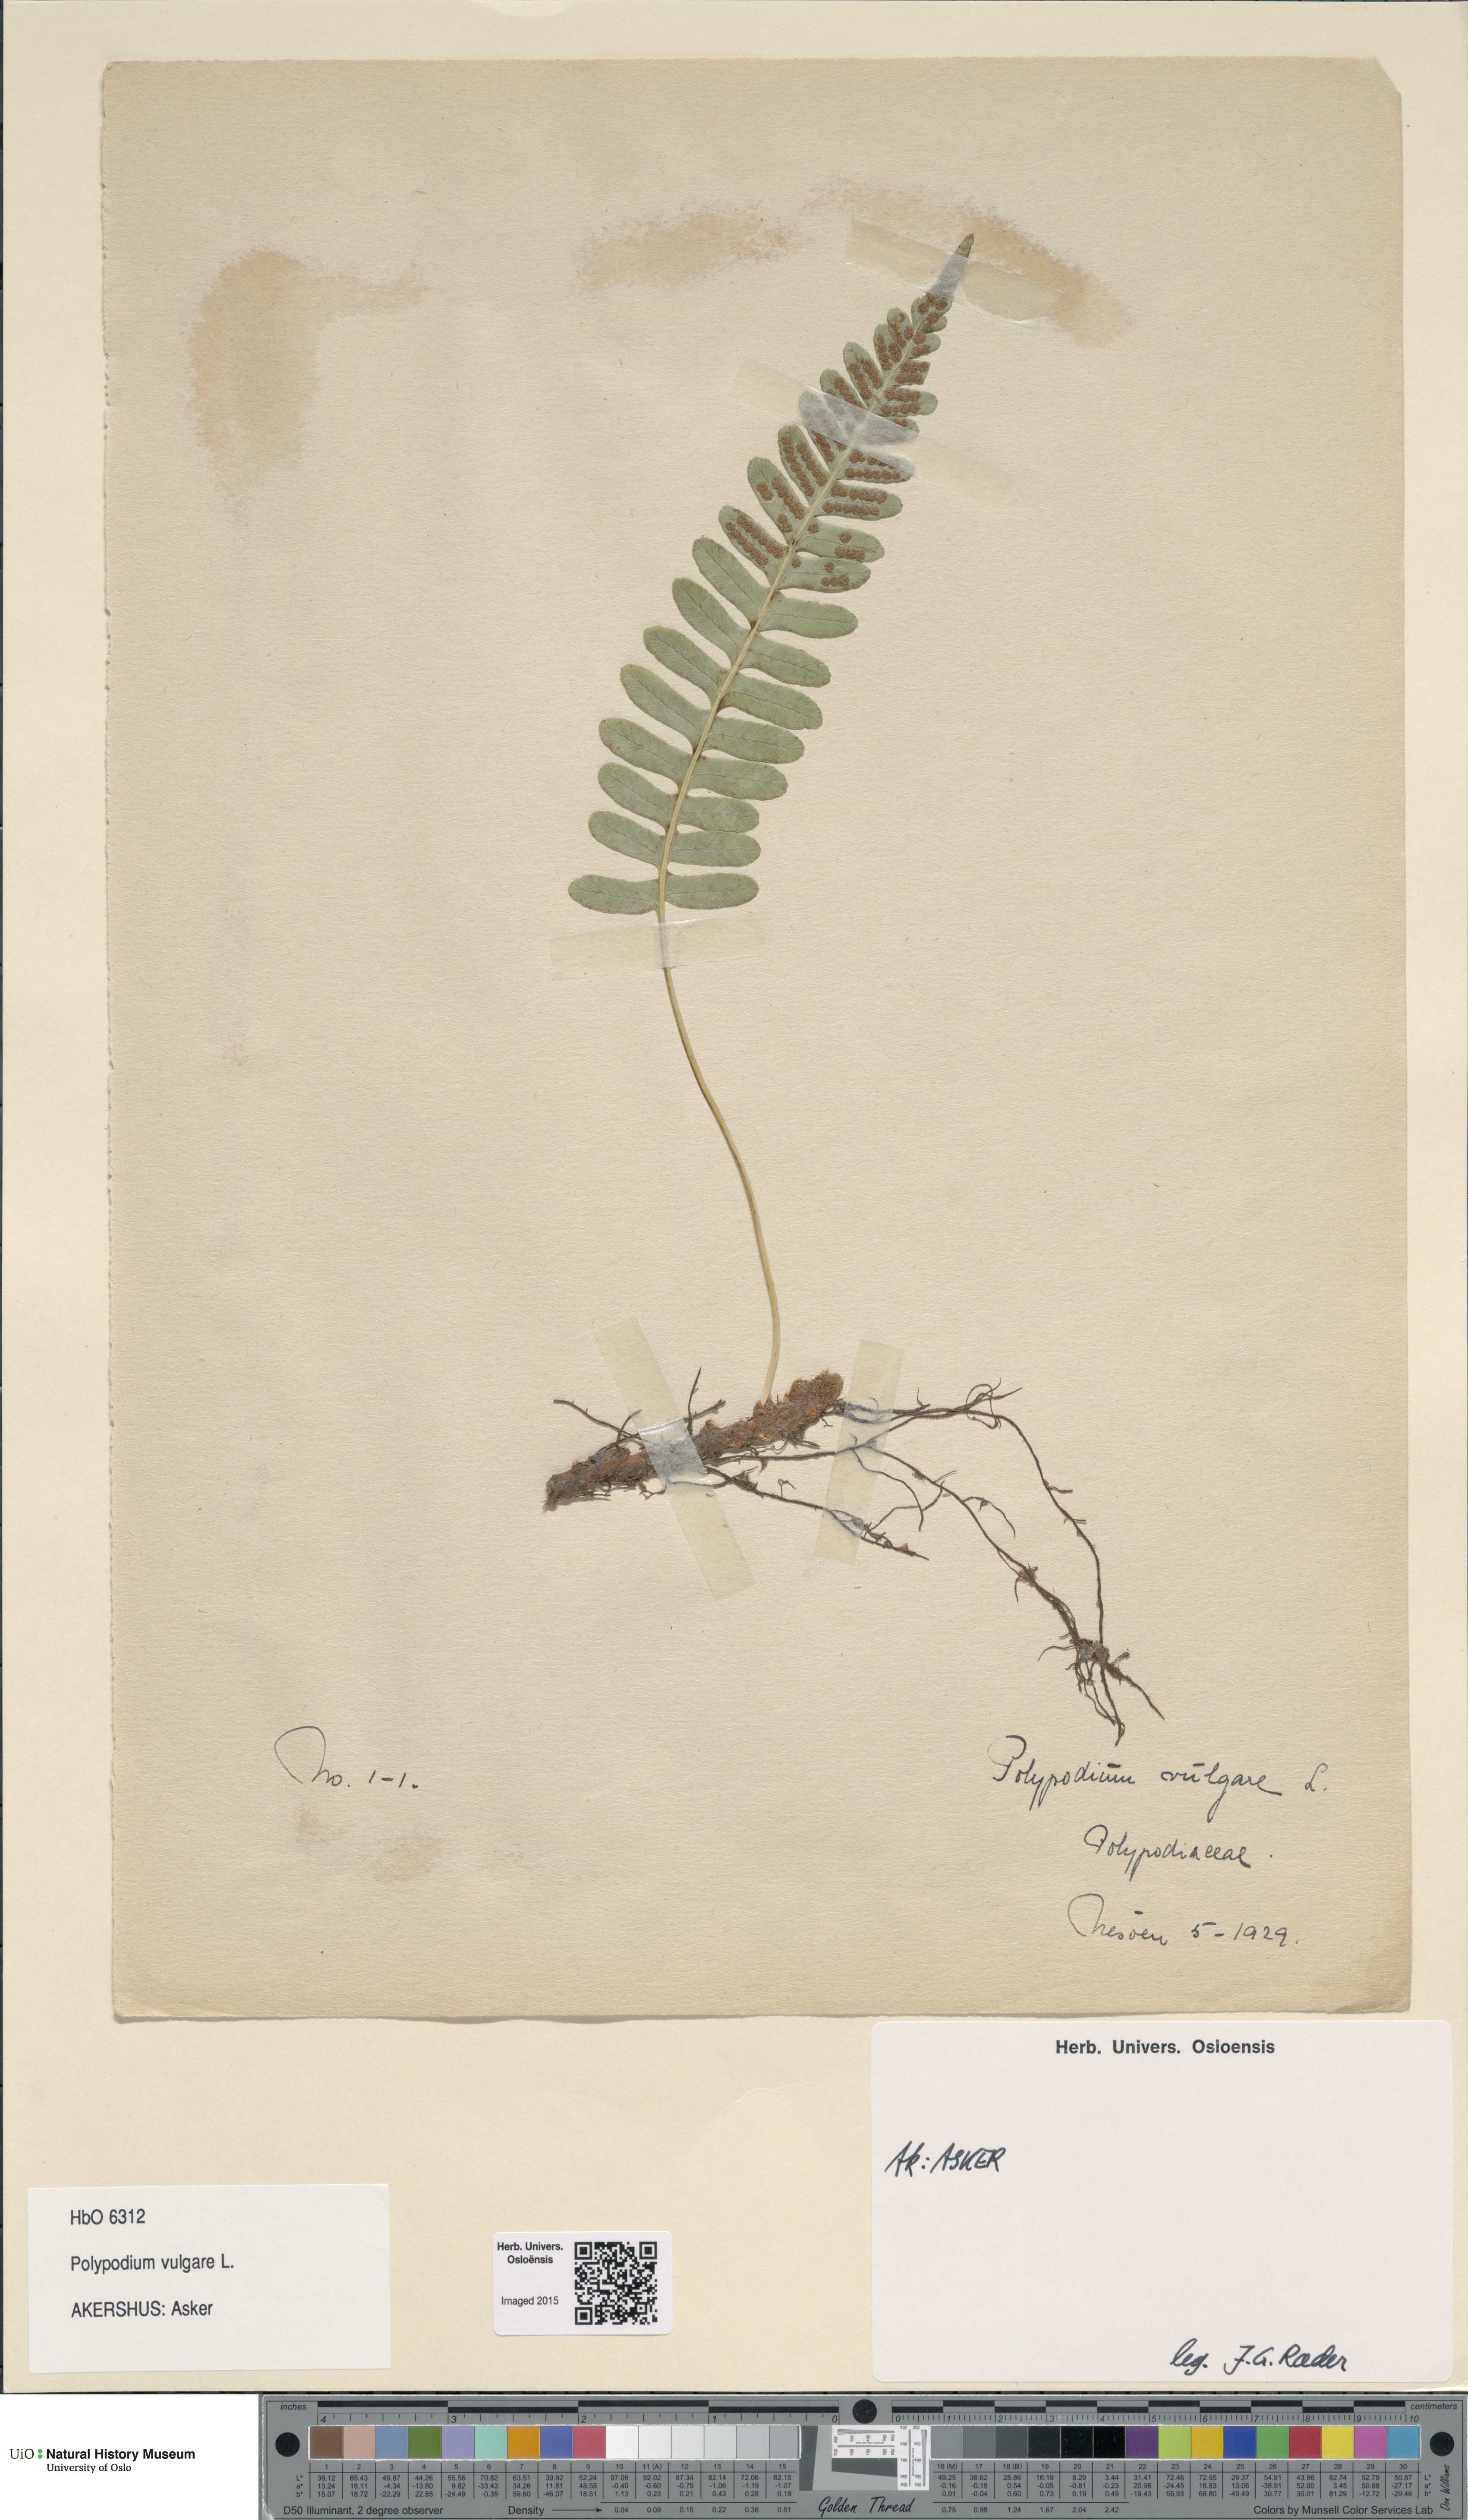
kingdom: Plantae
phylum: Tracheophyta
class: Polypodiopsida
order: Polypodiales
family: Polypodiaceae
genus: Polypodium
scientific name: Polypodium vulgare
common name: Common polypody
